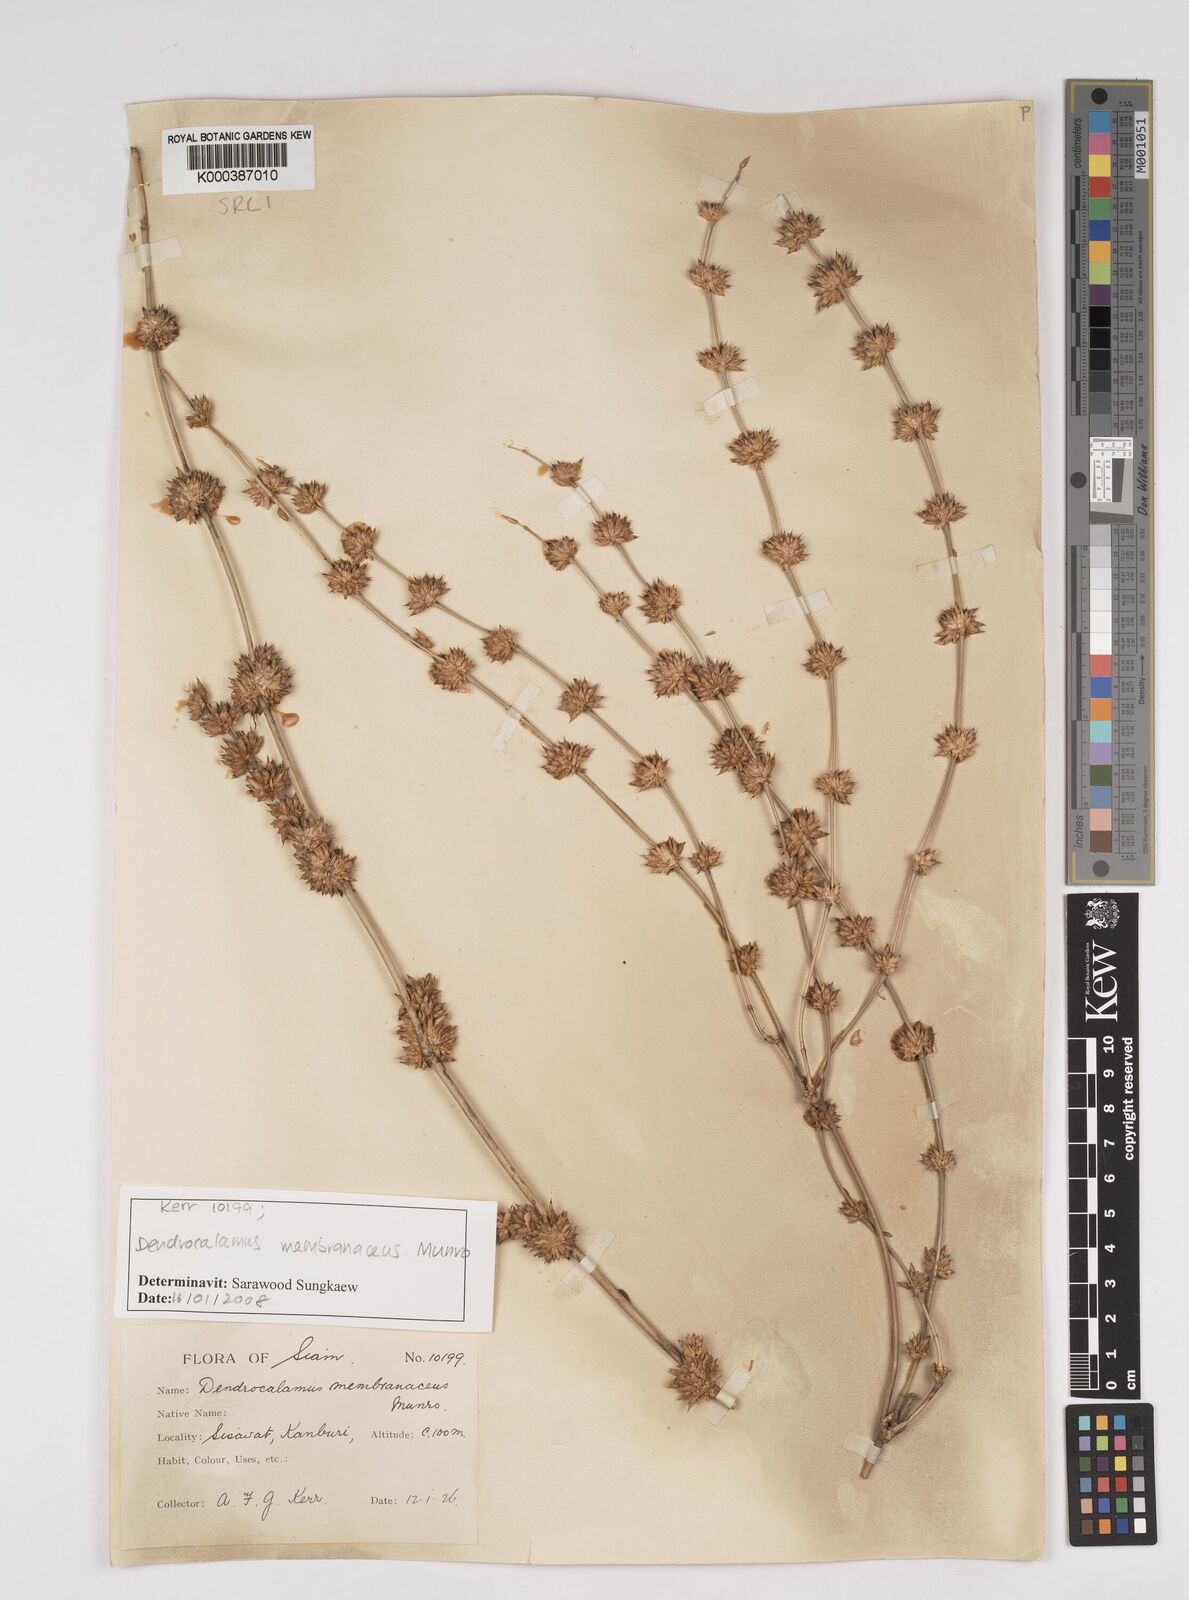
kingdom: Plantae
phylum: Tracheophyta
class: Liliopsida
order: Poales
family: Poaceae
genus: Dendrocalamus
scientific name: Dendrocalamus membranaceus
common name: White bamboo
